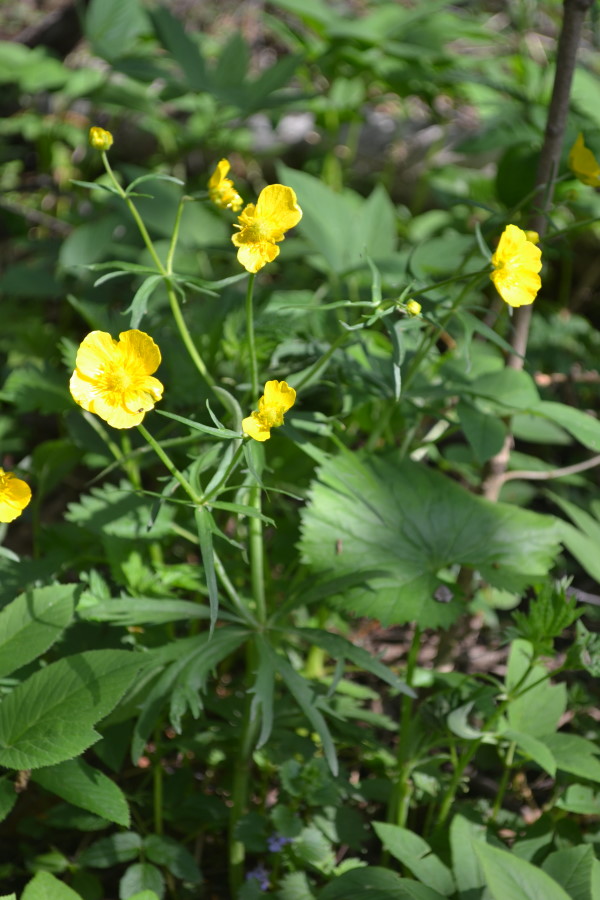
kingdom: Plantae
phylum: Tracheophyta
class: Magnoliopsida
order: Ranunculales
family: Ranunculaceae
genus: Ranunculus
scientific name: Ranunculus cassubicus
